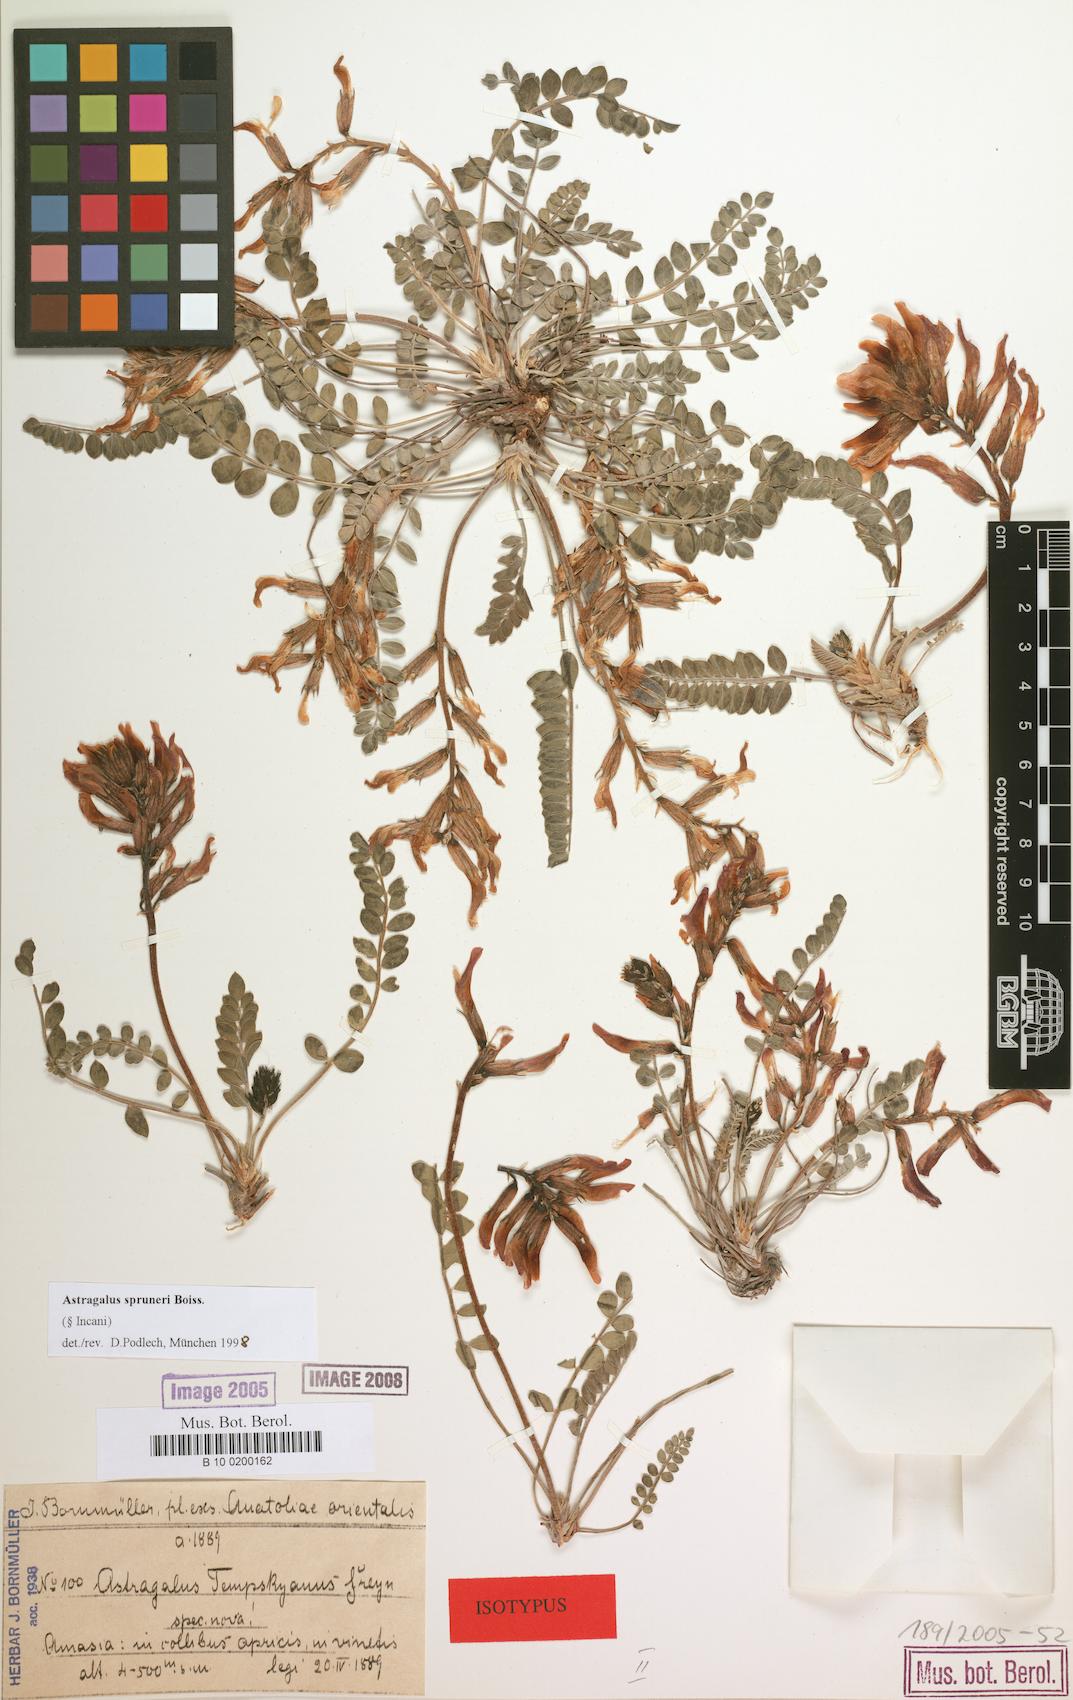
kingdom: Plantae
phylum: Tracheophyta
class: Magnoliopsida
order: Fabales
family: Fabaceae
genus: Astragalus
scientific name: Astragalus spruneri
